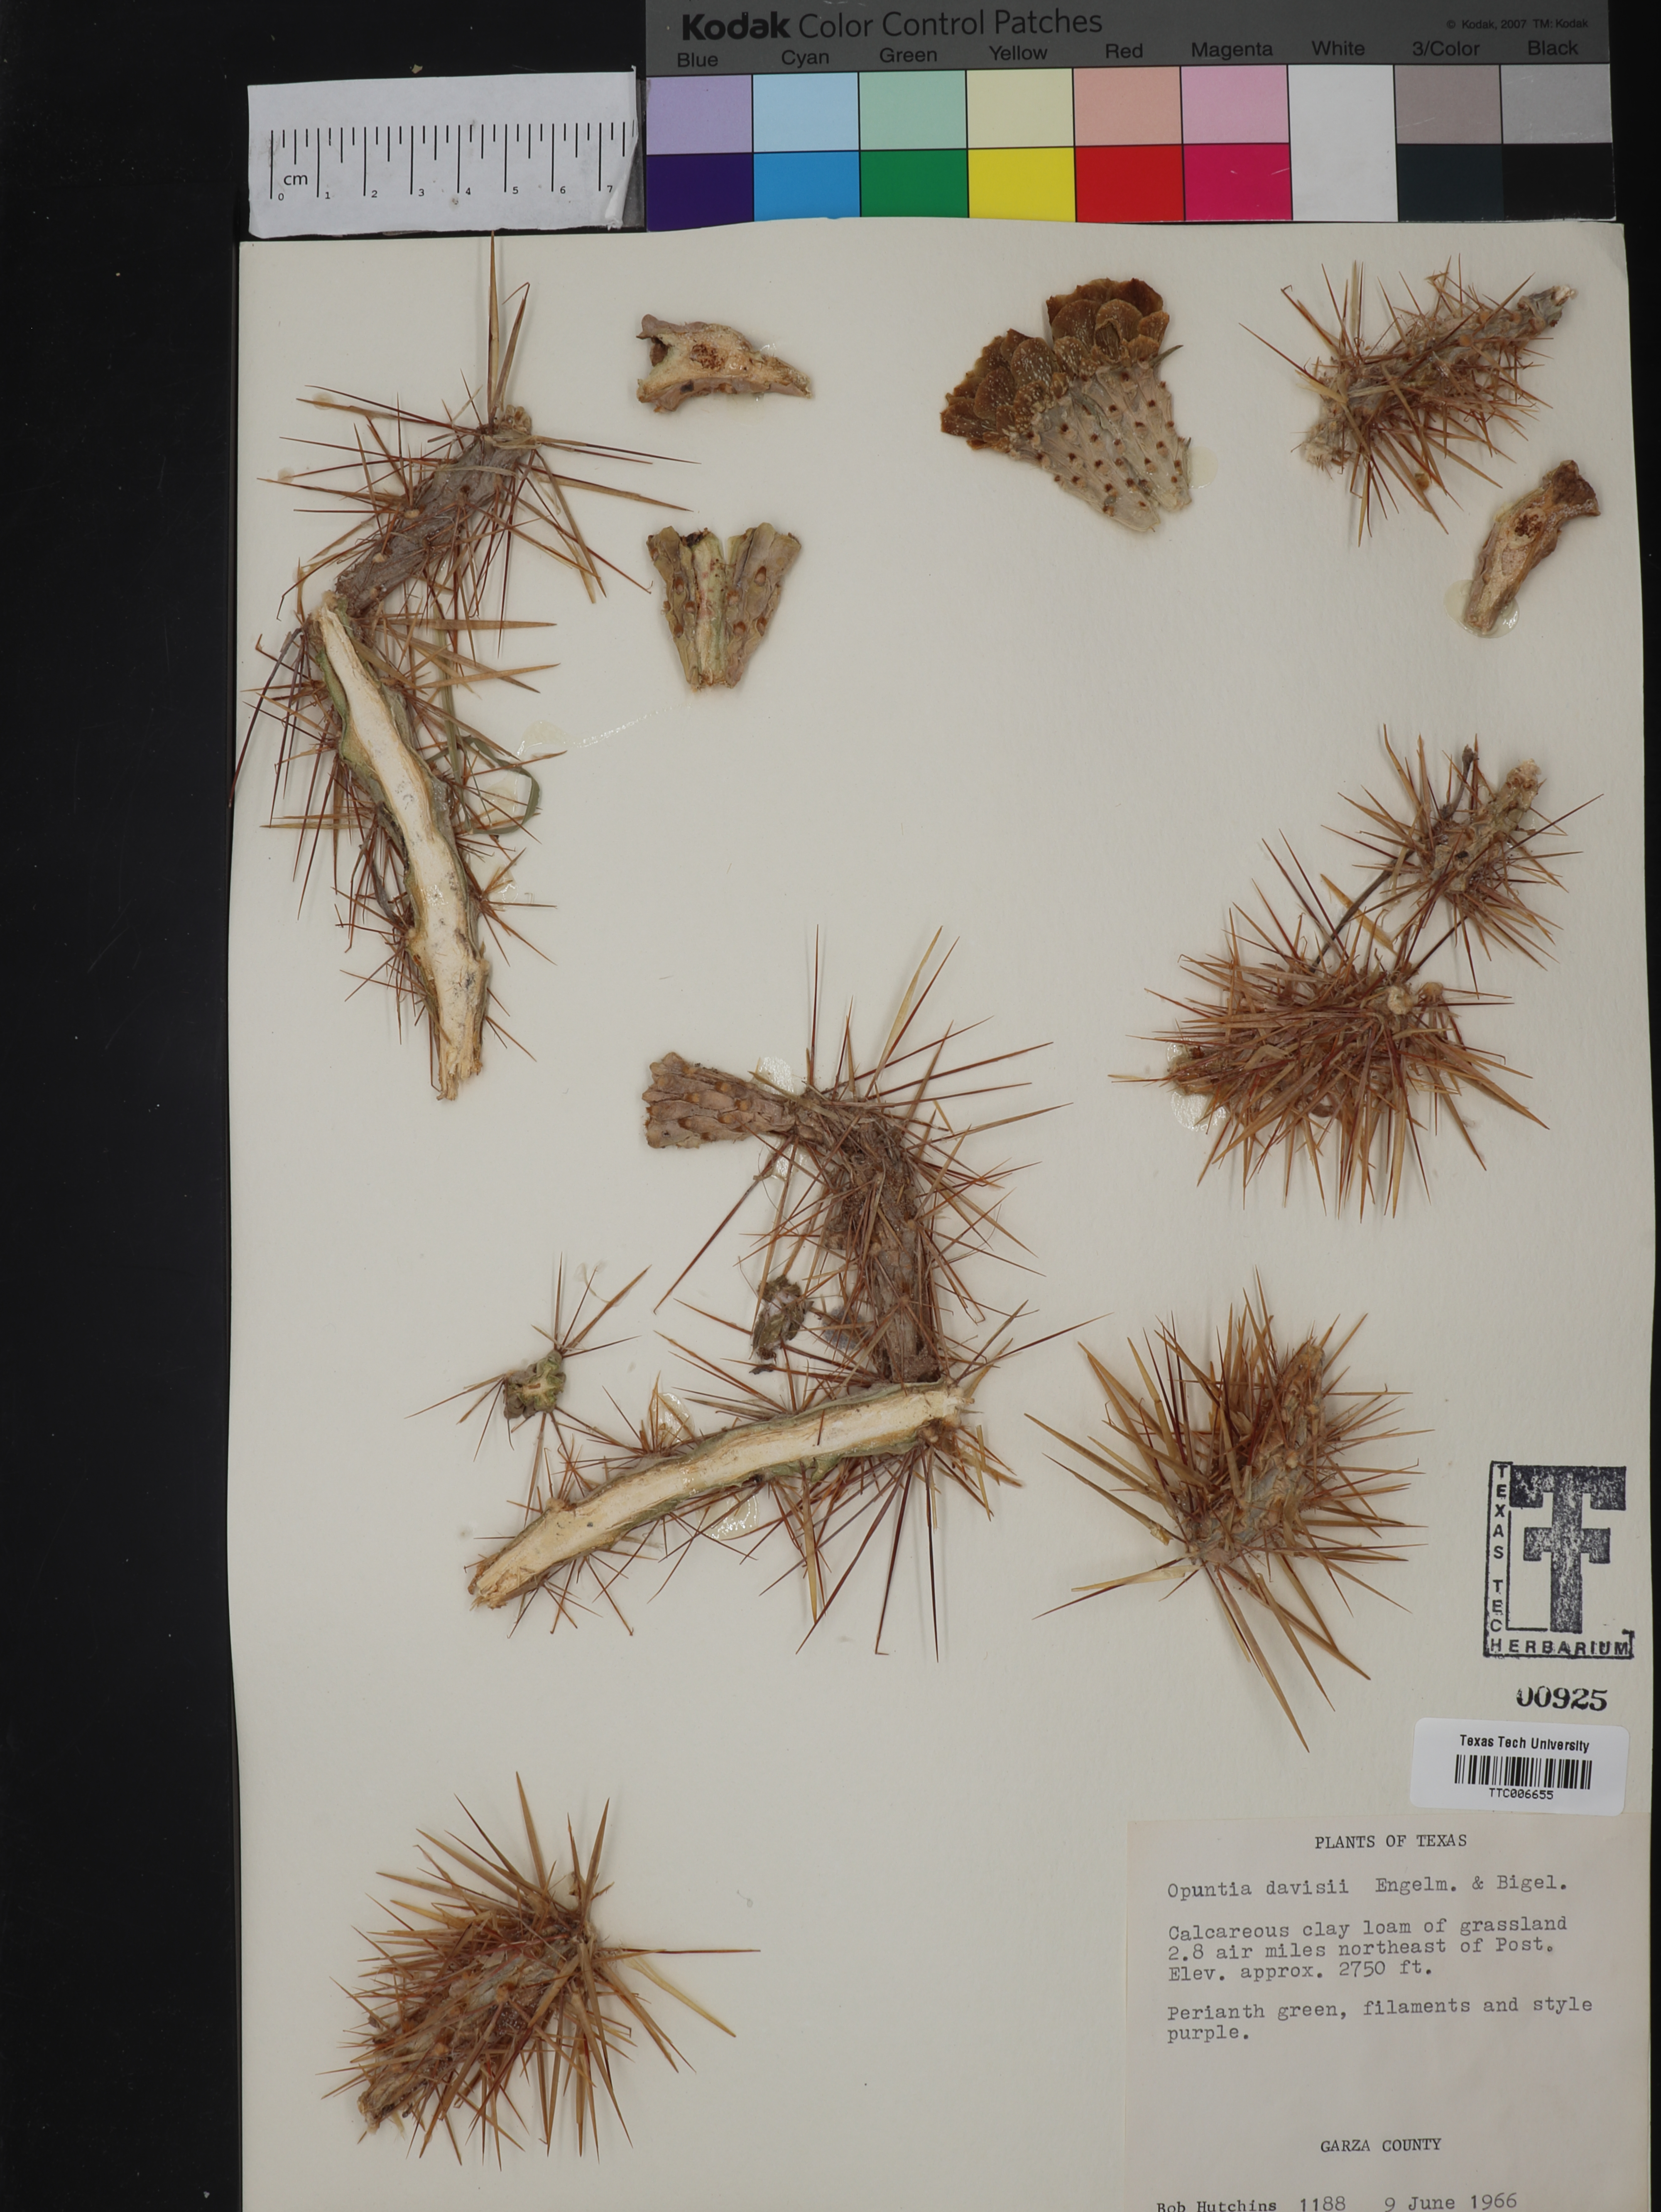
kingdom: Plantae
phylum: Tracheophyta
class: Magnoliopsida
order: Caryophyllales
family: Cactaceae
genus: Cylindropuntia
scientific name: Cylindropuntia davisii
